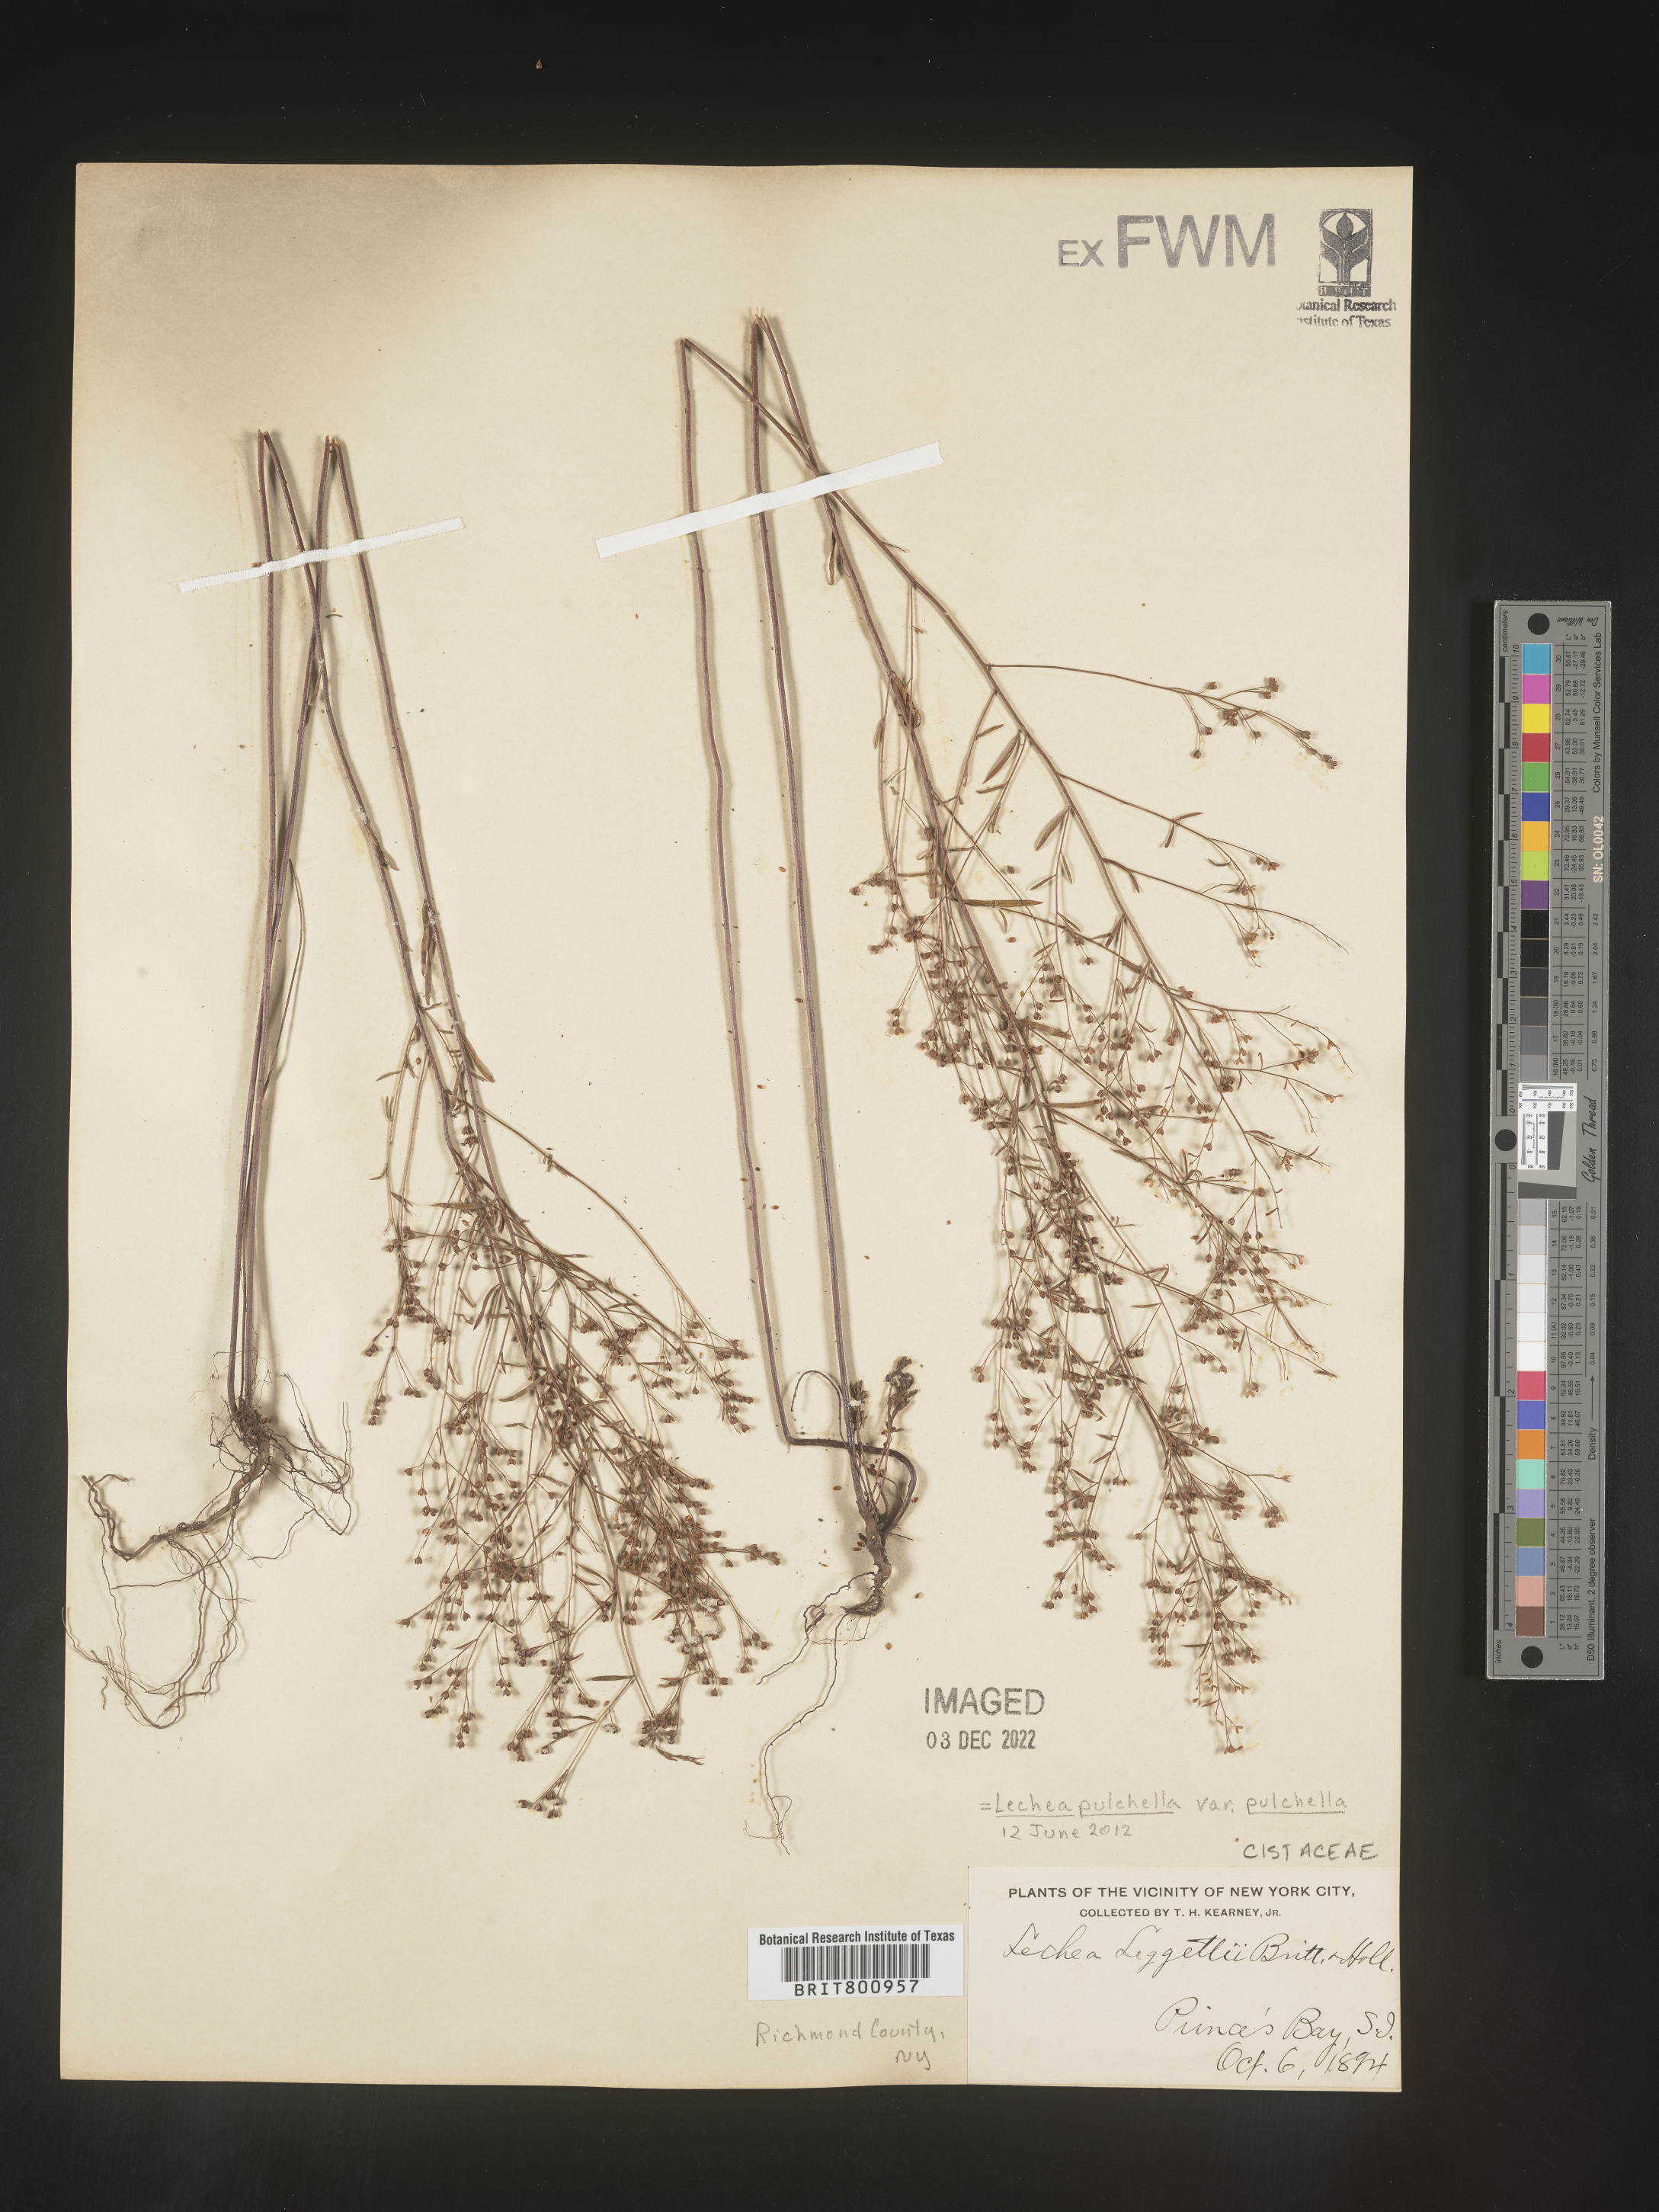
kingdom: Plantae
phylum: Tracheophyta
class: Magnoliopsida
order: Malvales
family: Cistaceae
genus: Lechea
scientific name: Lechea pulchella
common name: Leggett's pinweed
